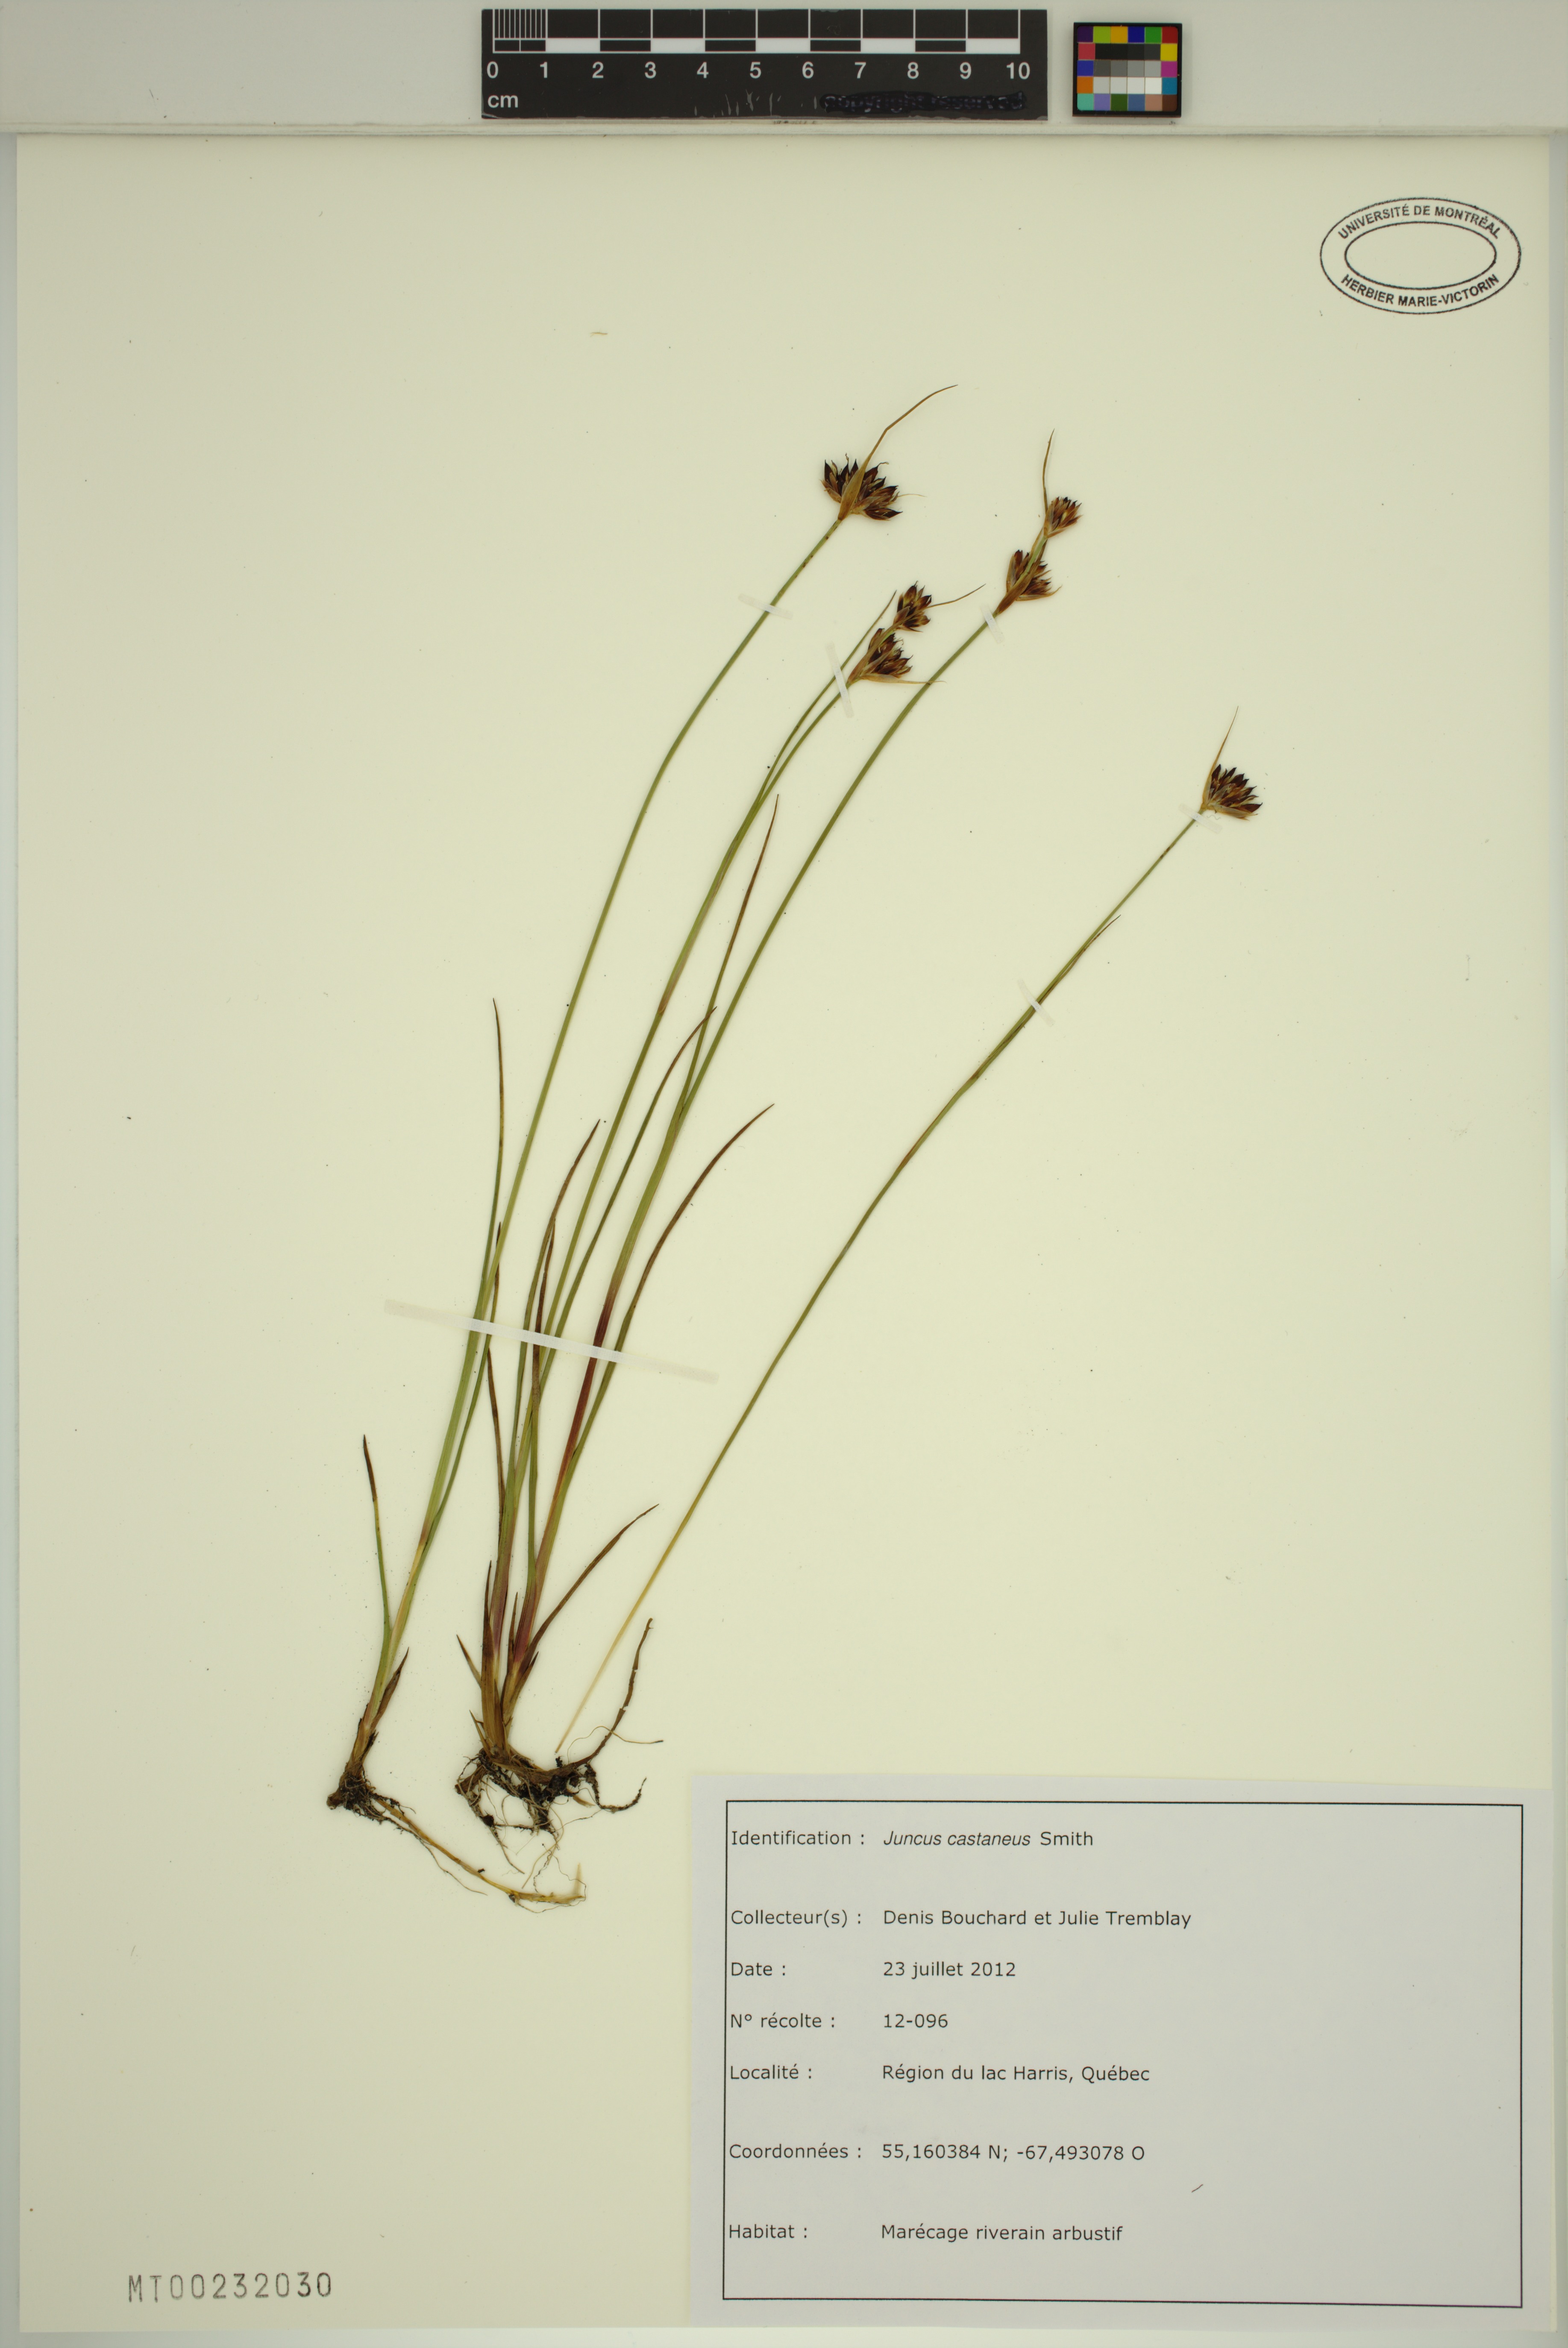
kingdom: Plantae
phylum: Tracheophyta
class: Liliopsida
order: Poales
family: Juncaceae
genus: Juncus
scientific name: Juncus castaneus
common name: Chestnut rush
